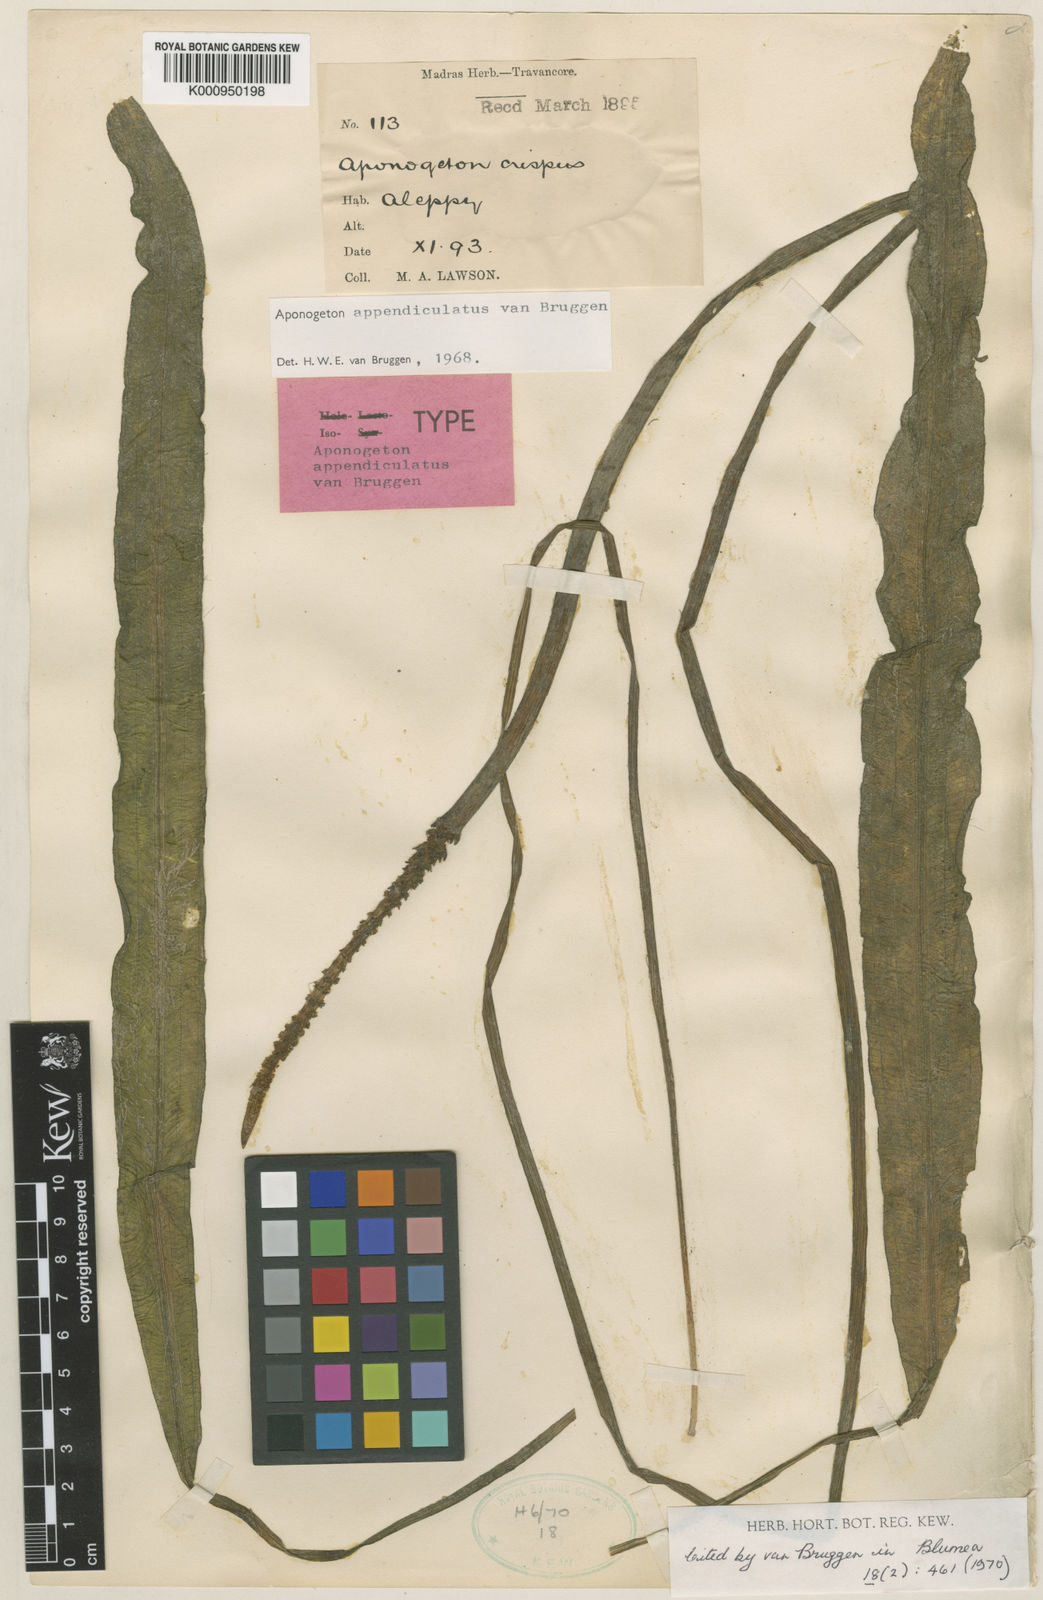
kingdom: Plantae
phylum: Tracheophyta
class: Liliopsida
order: Alismatales
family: Aponogetonaceae
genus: Aponogeton
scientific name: Aponogeton appendiculatus
